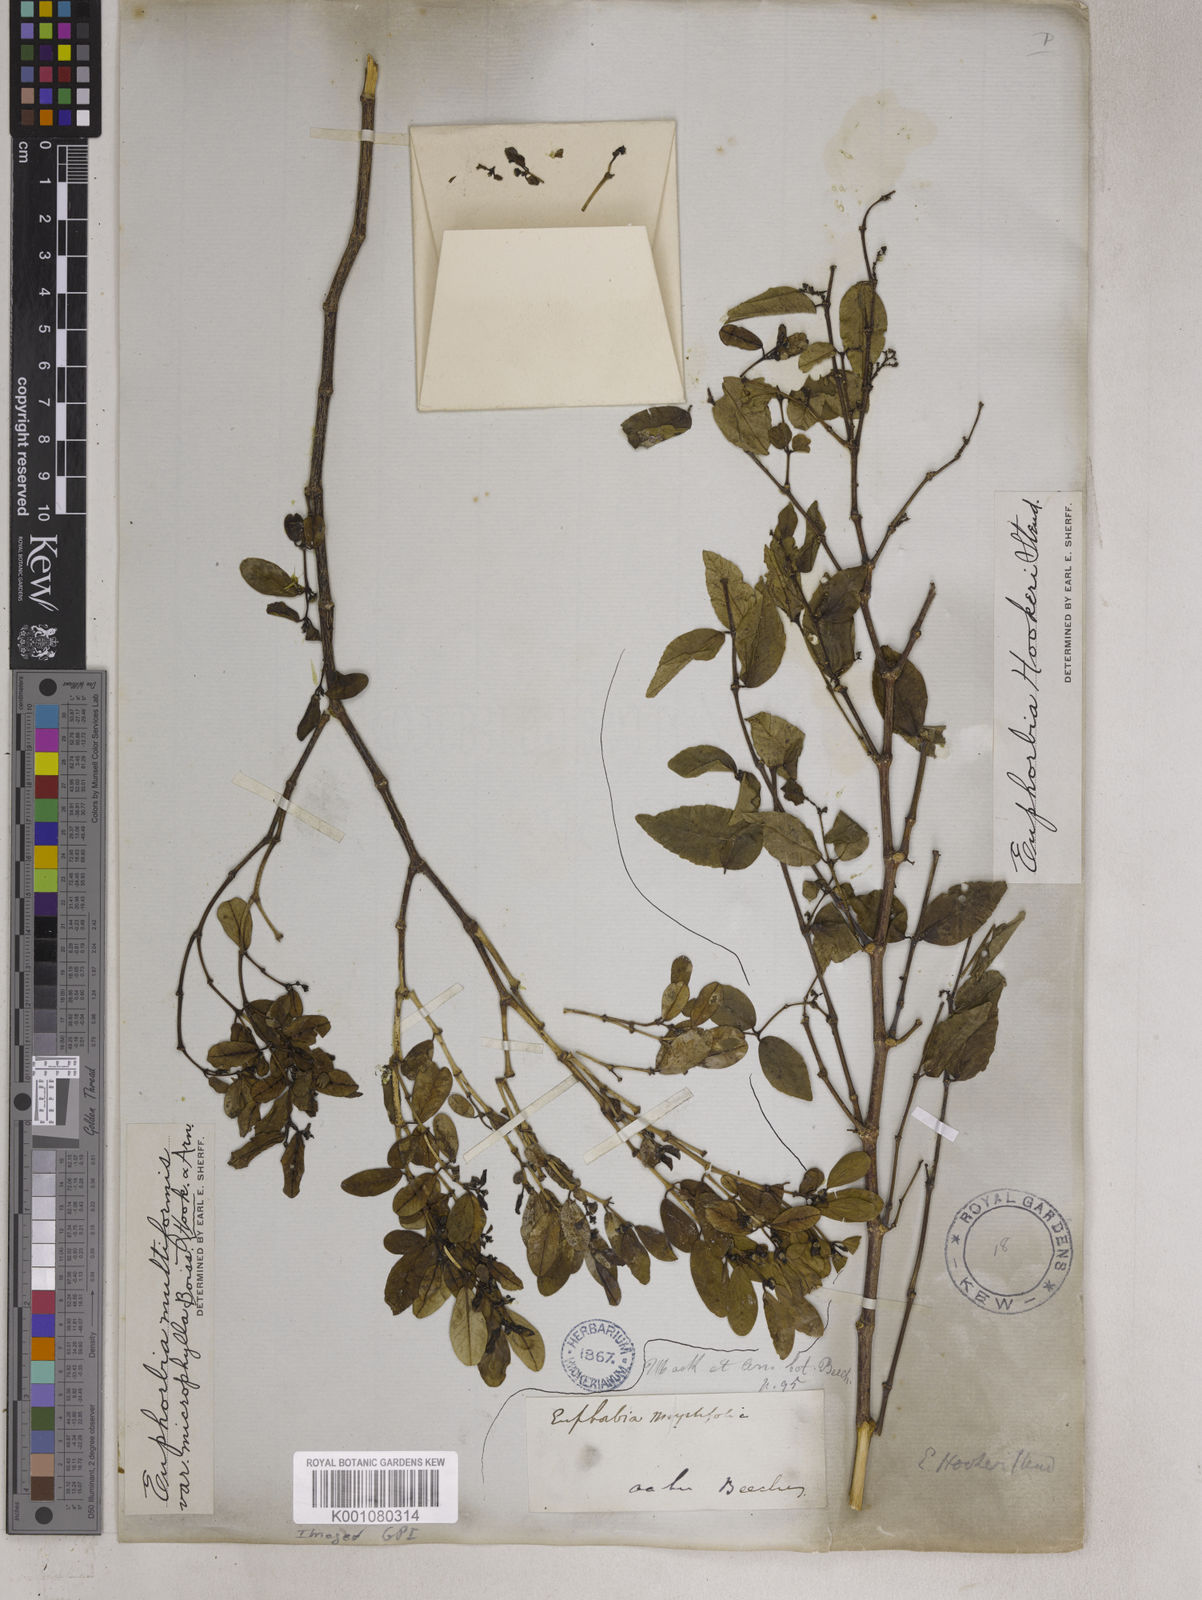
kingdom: Plantae
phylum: Tracheophyta
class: Magnoliopsida
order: Malpighiales
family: Euphorbiaceae
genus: Euphorbia
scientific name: Euphorbia arnottiana
